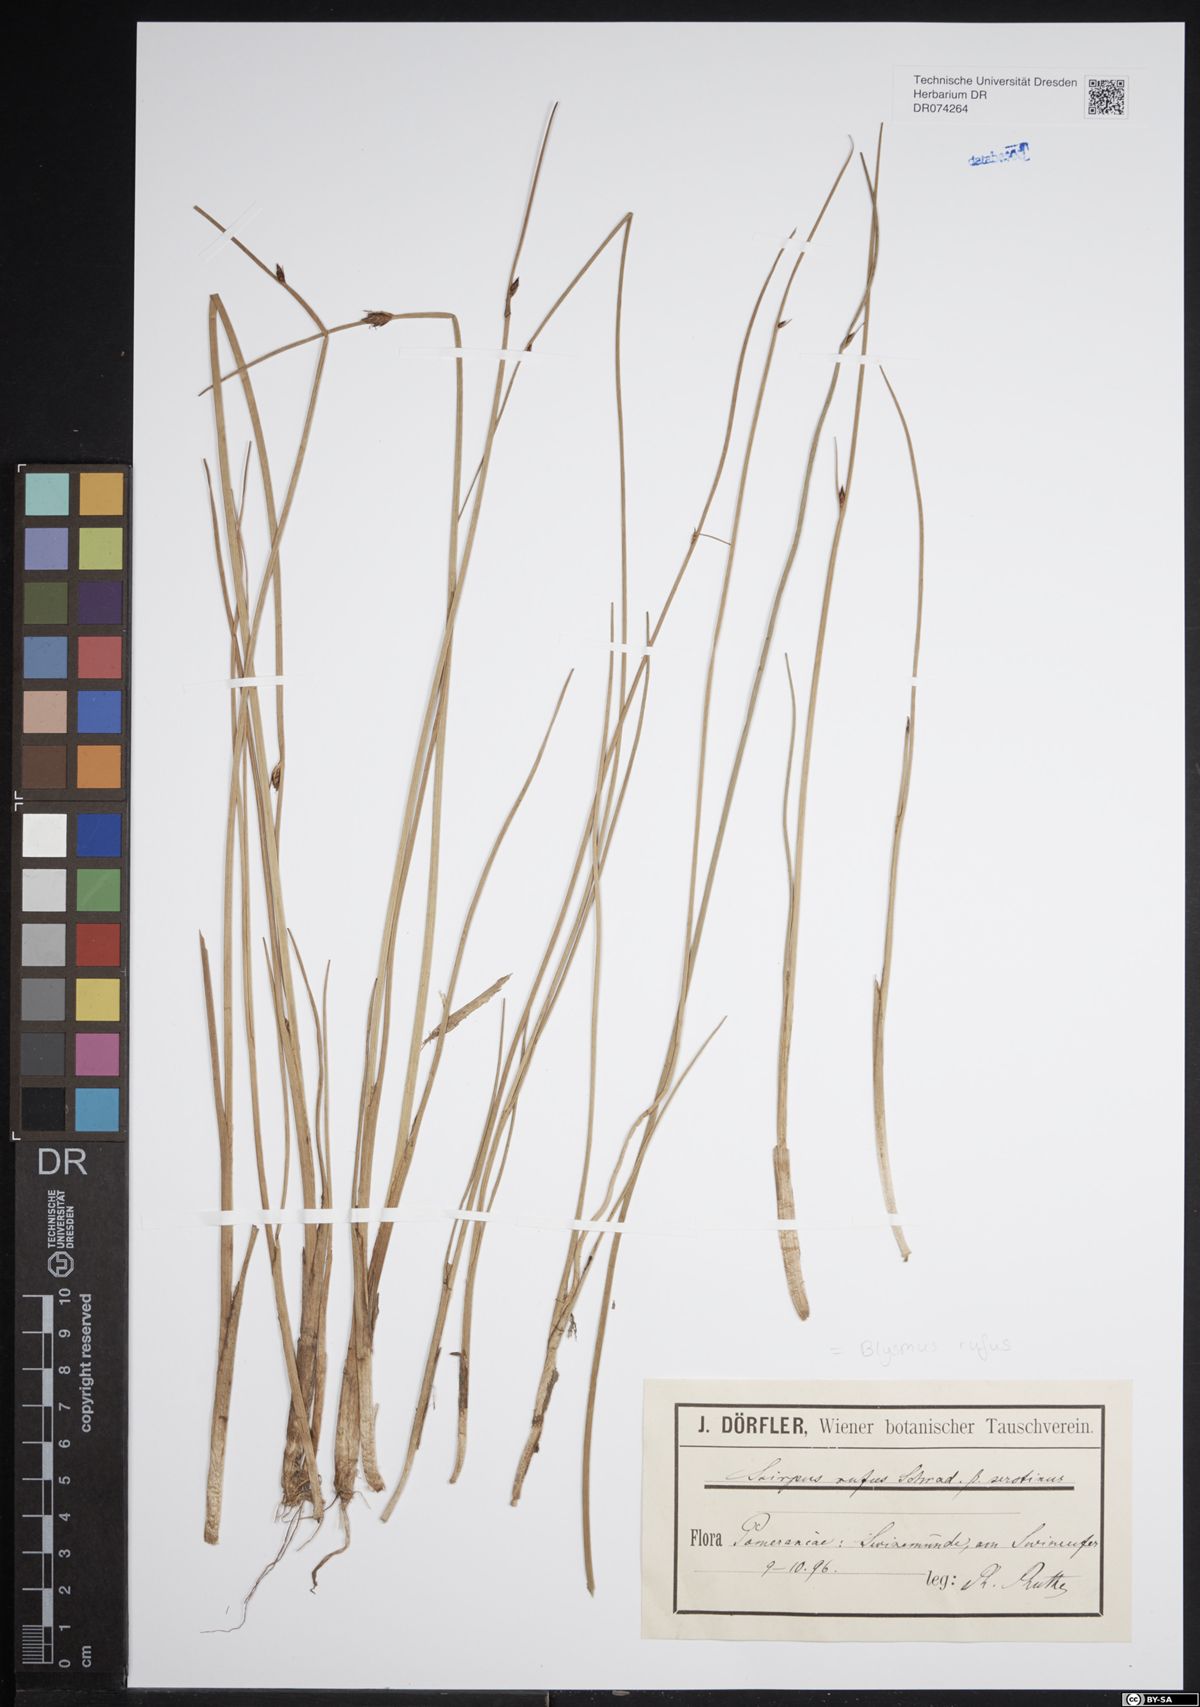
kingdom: Plantae
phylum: Tracheophyta
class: Liliopsida
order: Poales
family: Cyperaceae
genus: Blysmus
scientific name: Blysmus rufus
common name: Saltmarsh flat-sedge
